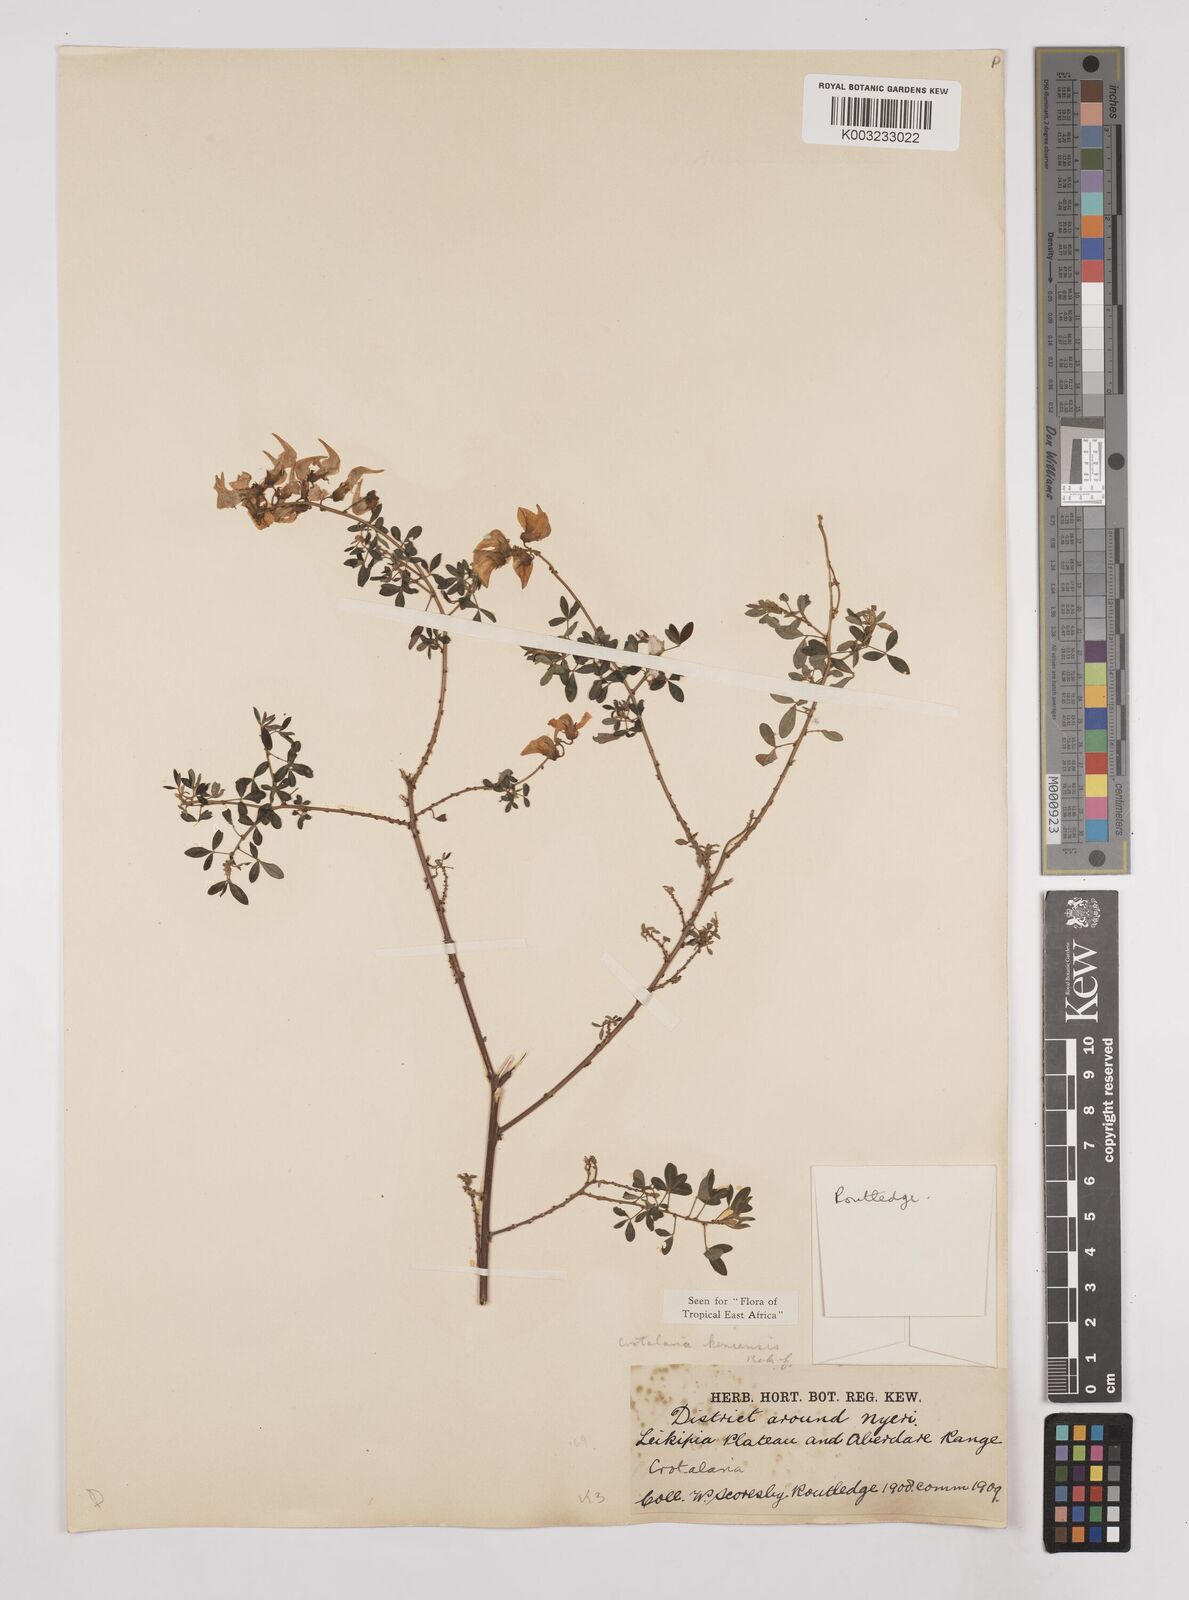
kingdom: Plantae
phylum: Tracheophyta
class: Magnoliopsida
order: Fabales
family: Fabaceae
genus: Crotalaria
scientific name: Crotalaria keniensis
